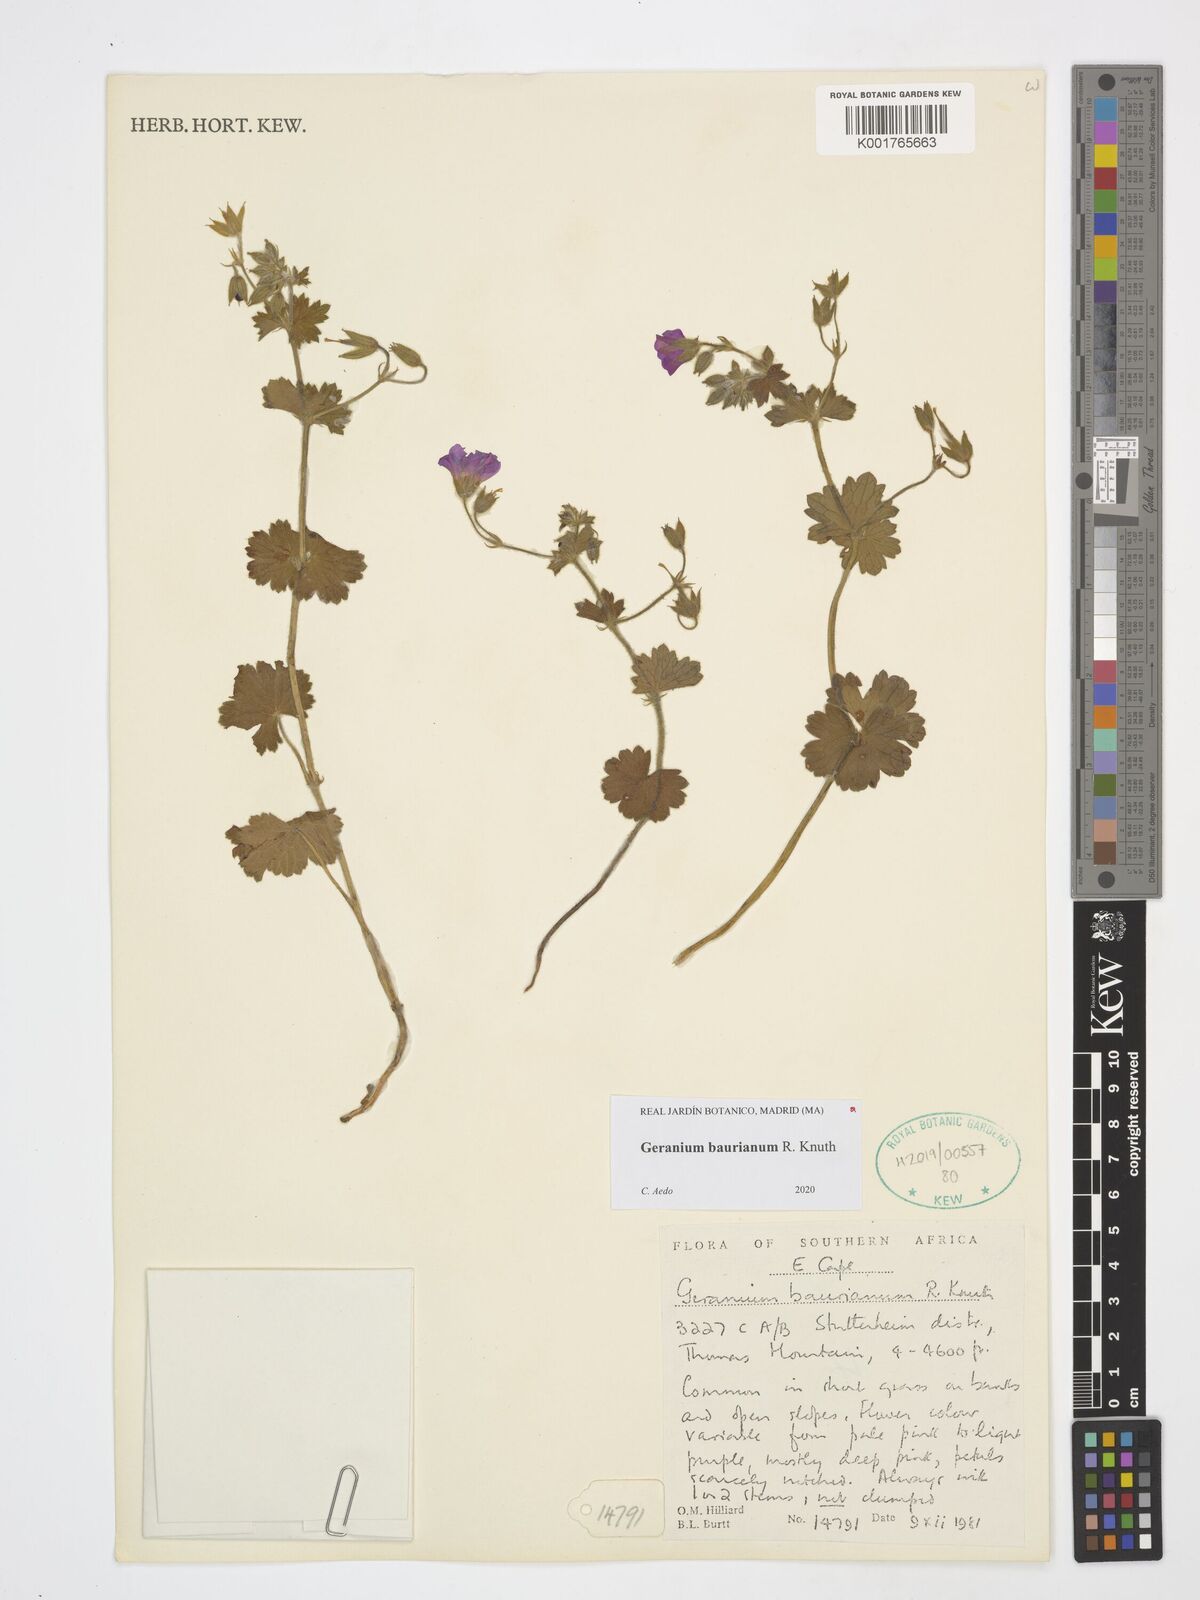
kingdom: Plantae
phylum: Tracheophyta
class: Magnoliopsida
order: Geraniales
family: Geraniaceae
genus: Geranium
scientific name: Geranium baurianum
